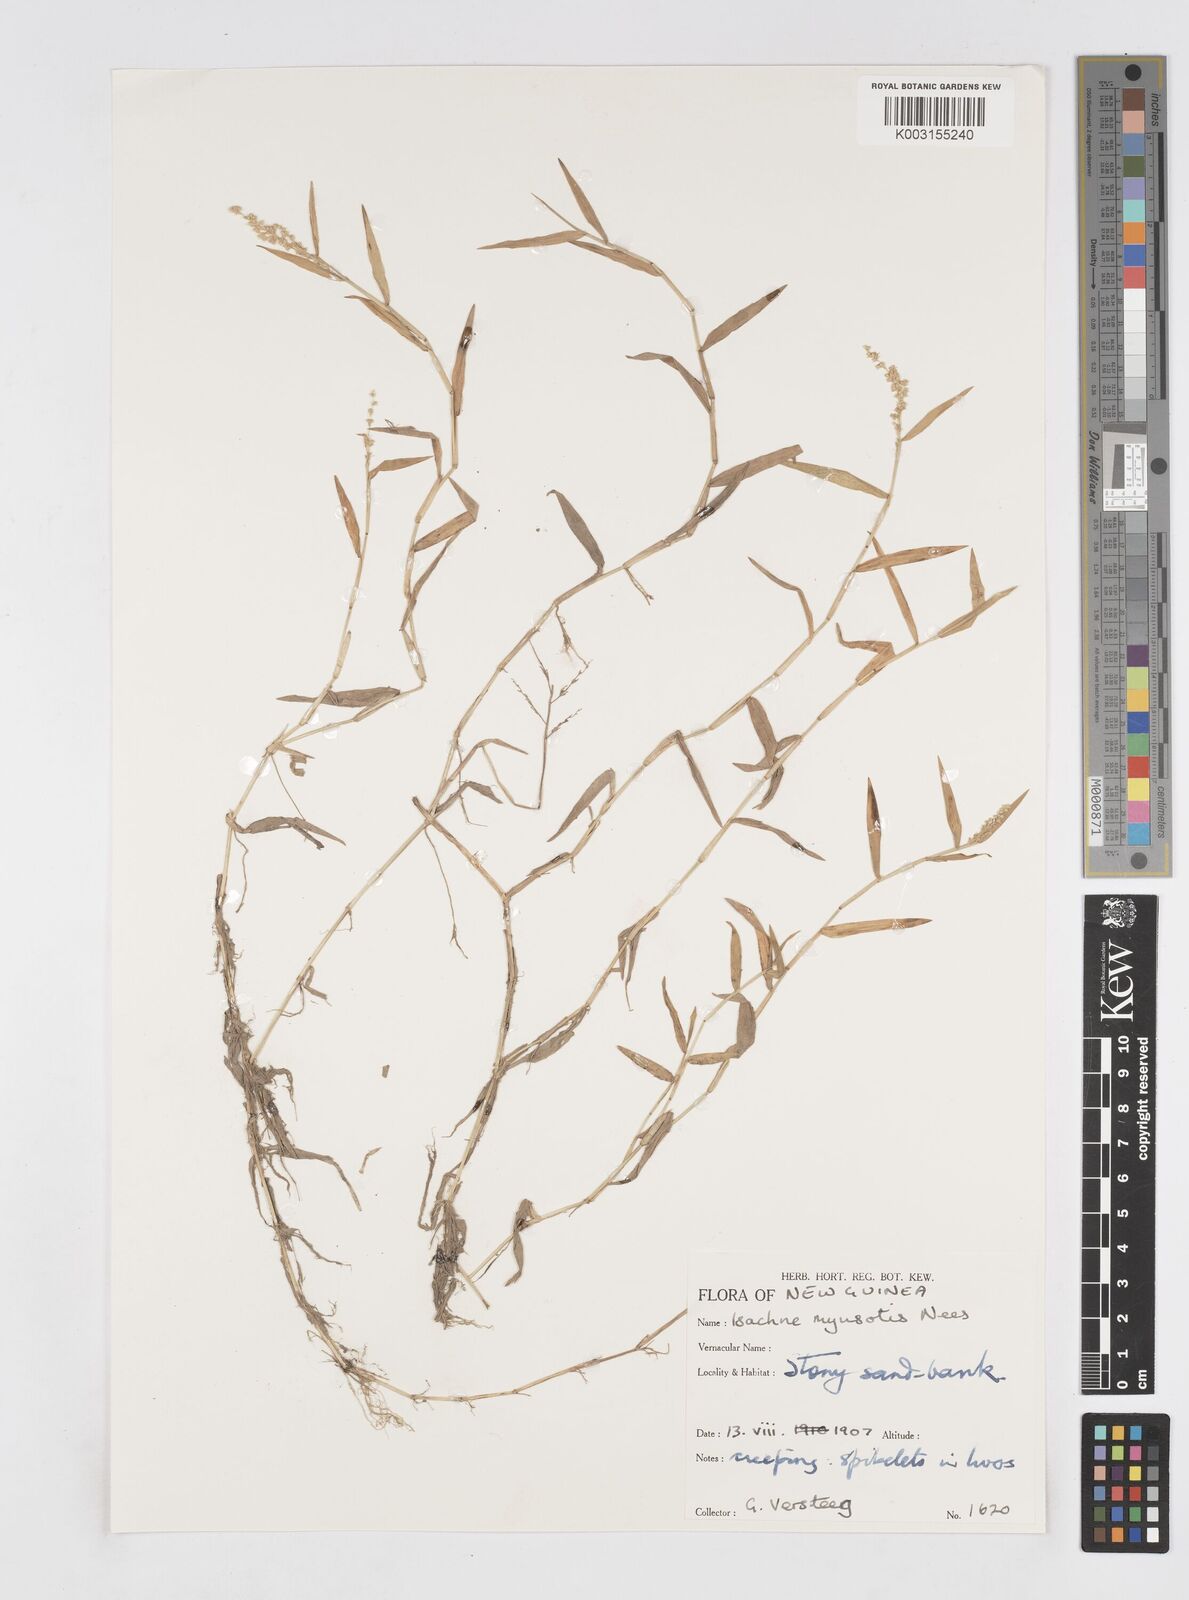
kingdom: Plantae
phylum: Tracheophyta
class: Liliopsida
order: Poales
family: Poaceae
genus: Isachne
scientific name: Isachne myosotis
